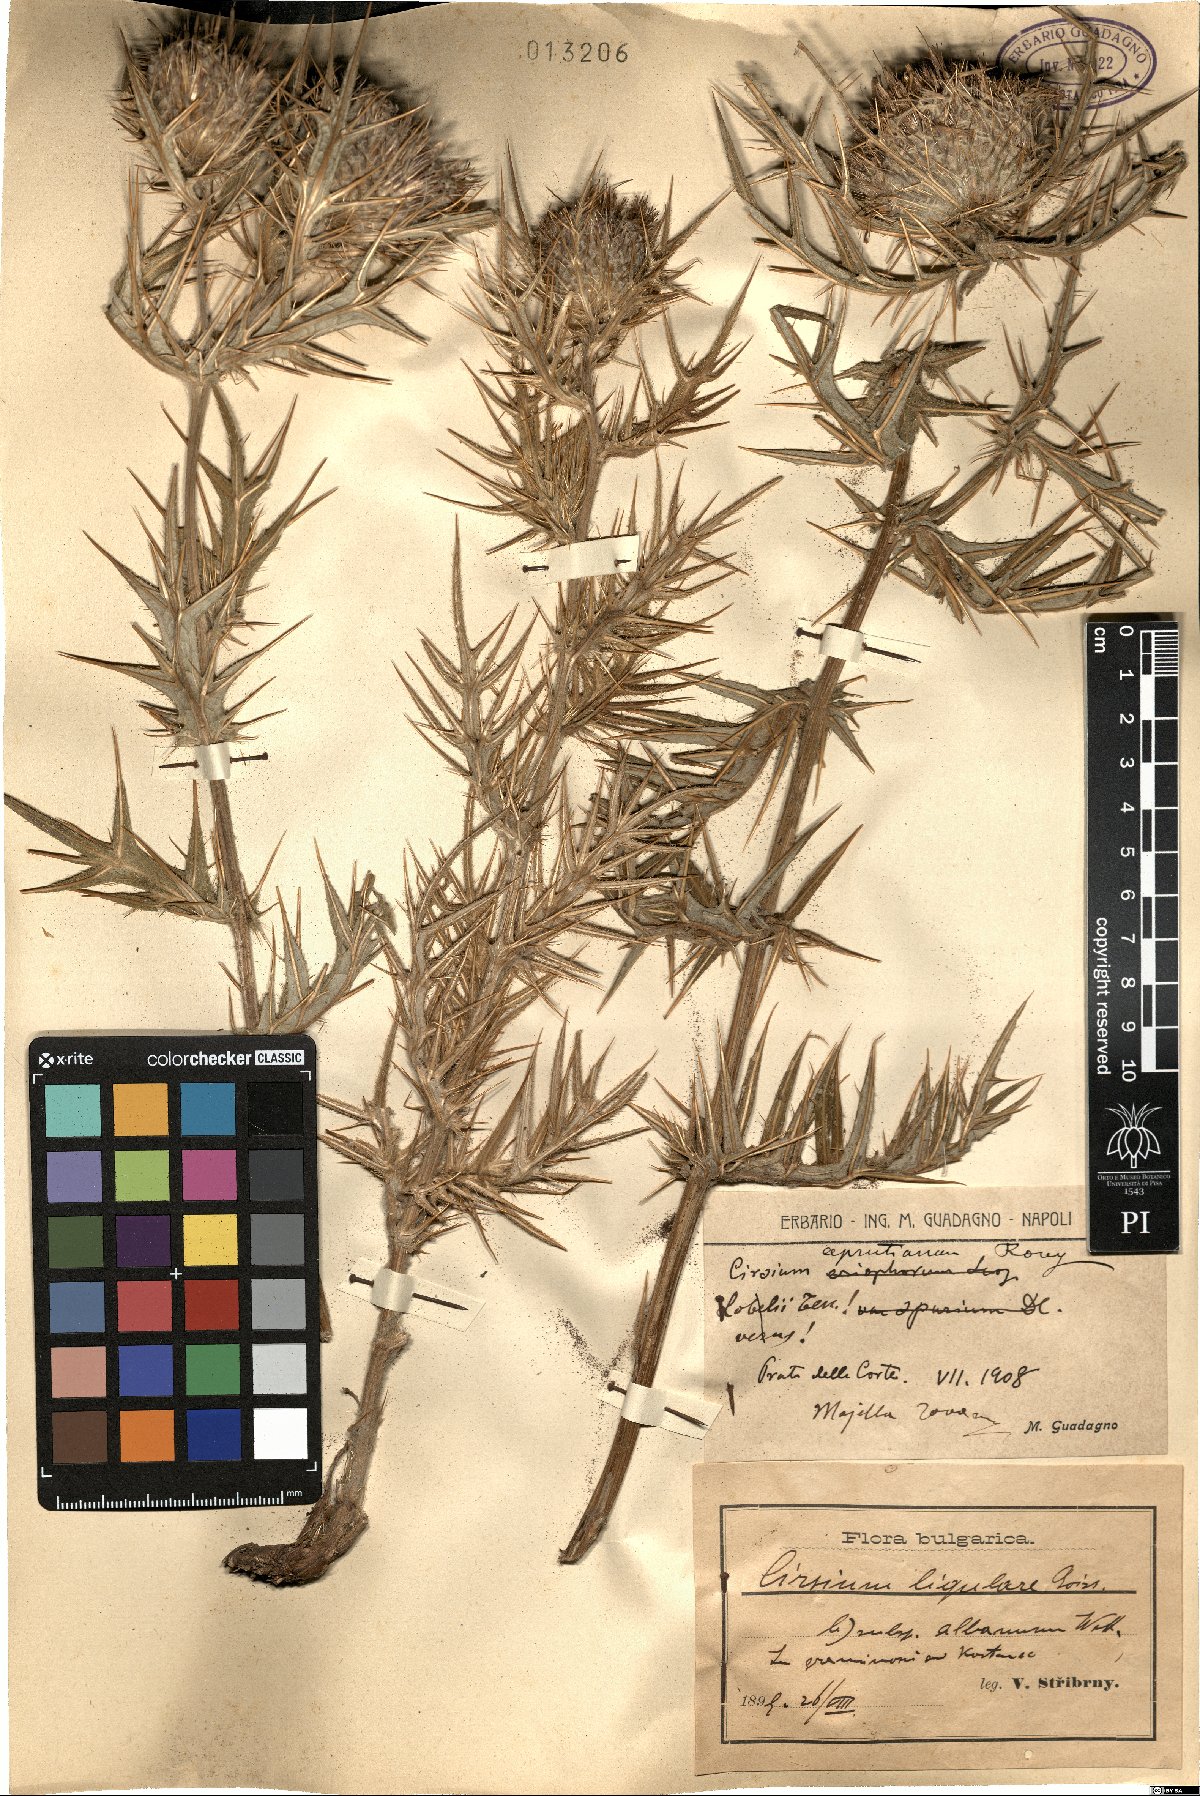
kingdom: Plantae
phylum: Tracheophyta
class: Magnoliopsida
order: Asterales
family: Asteraceae
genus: Lophiolepis
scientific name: Lophiolepis lobelii
